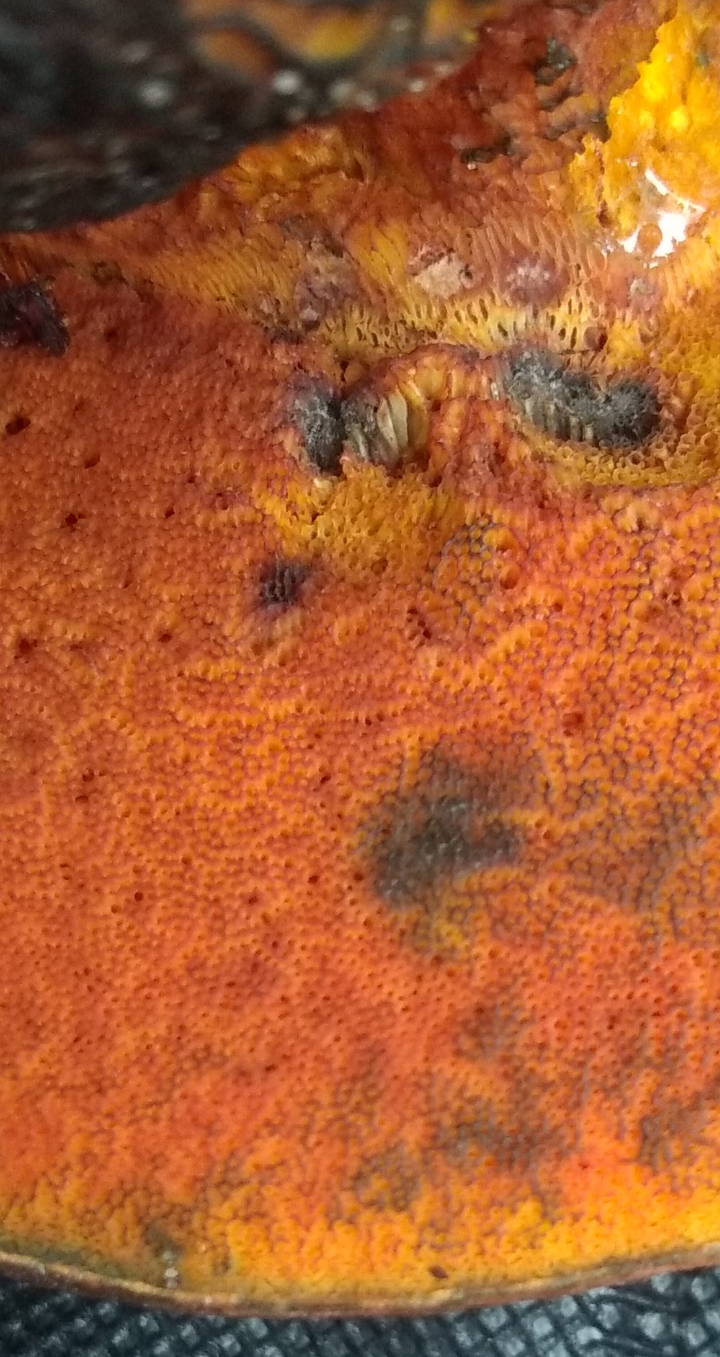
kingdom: Fungi
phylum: Basidiomycota
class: Agaricomycetes
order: Boletales
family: Boletaceae
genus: Suillellus
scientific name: Suillellus luridus
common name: netstokket indigorørhat
